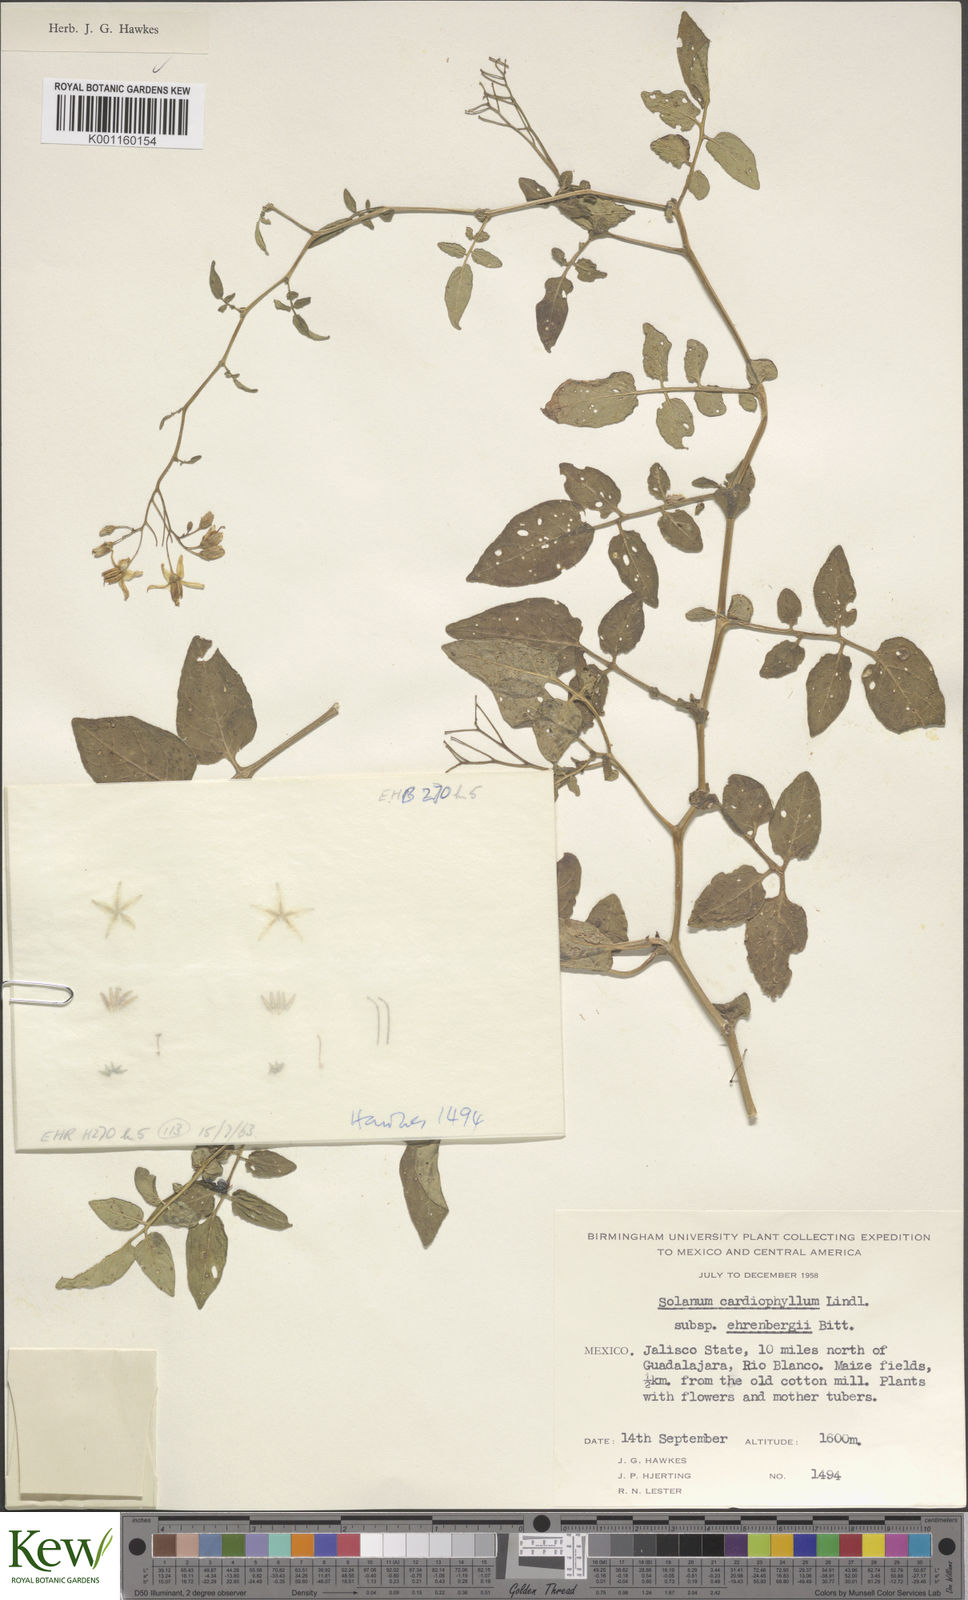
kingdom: Plantae
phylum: Tracheophyta
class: Magnoliopsida
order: Solanales
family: Solanaceae
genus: Solanum
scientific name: Solanum cardiophyllum
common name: Heartleaf horsenettle
